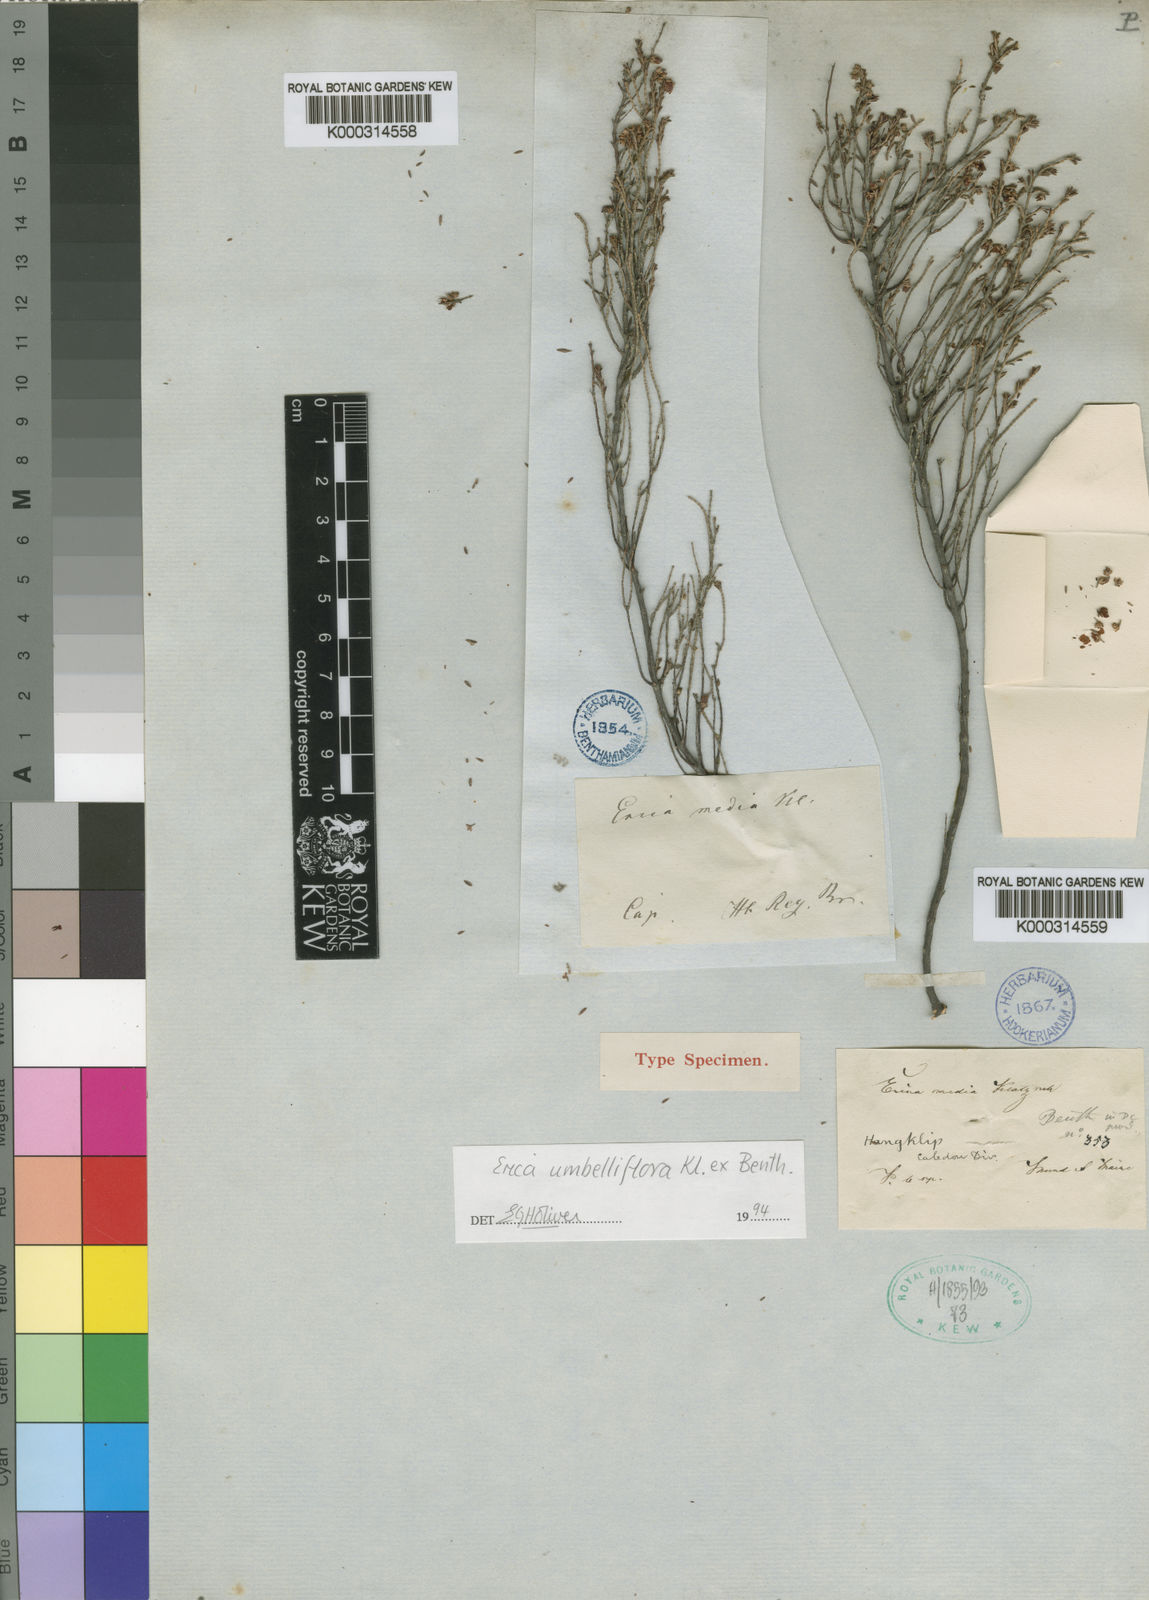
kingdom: Plantae
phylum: Tracheophyta
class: Magnoliopsida
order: Ericales
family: Ericaceae
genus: Erica
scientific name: Erica umbelliflora
